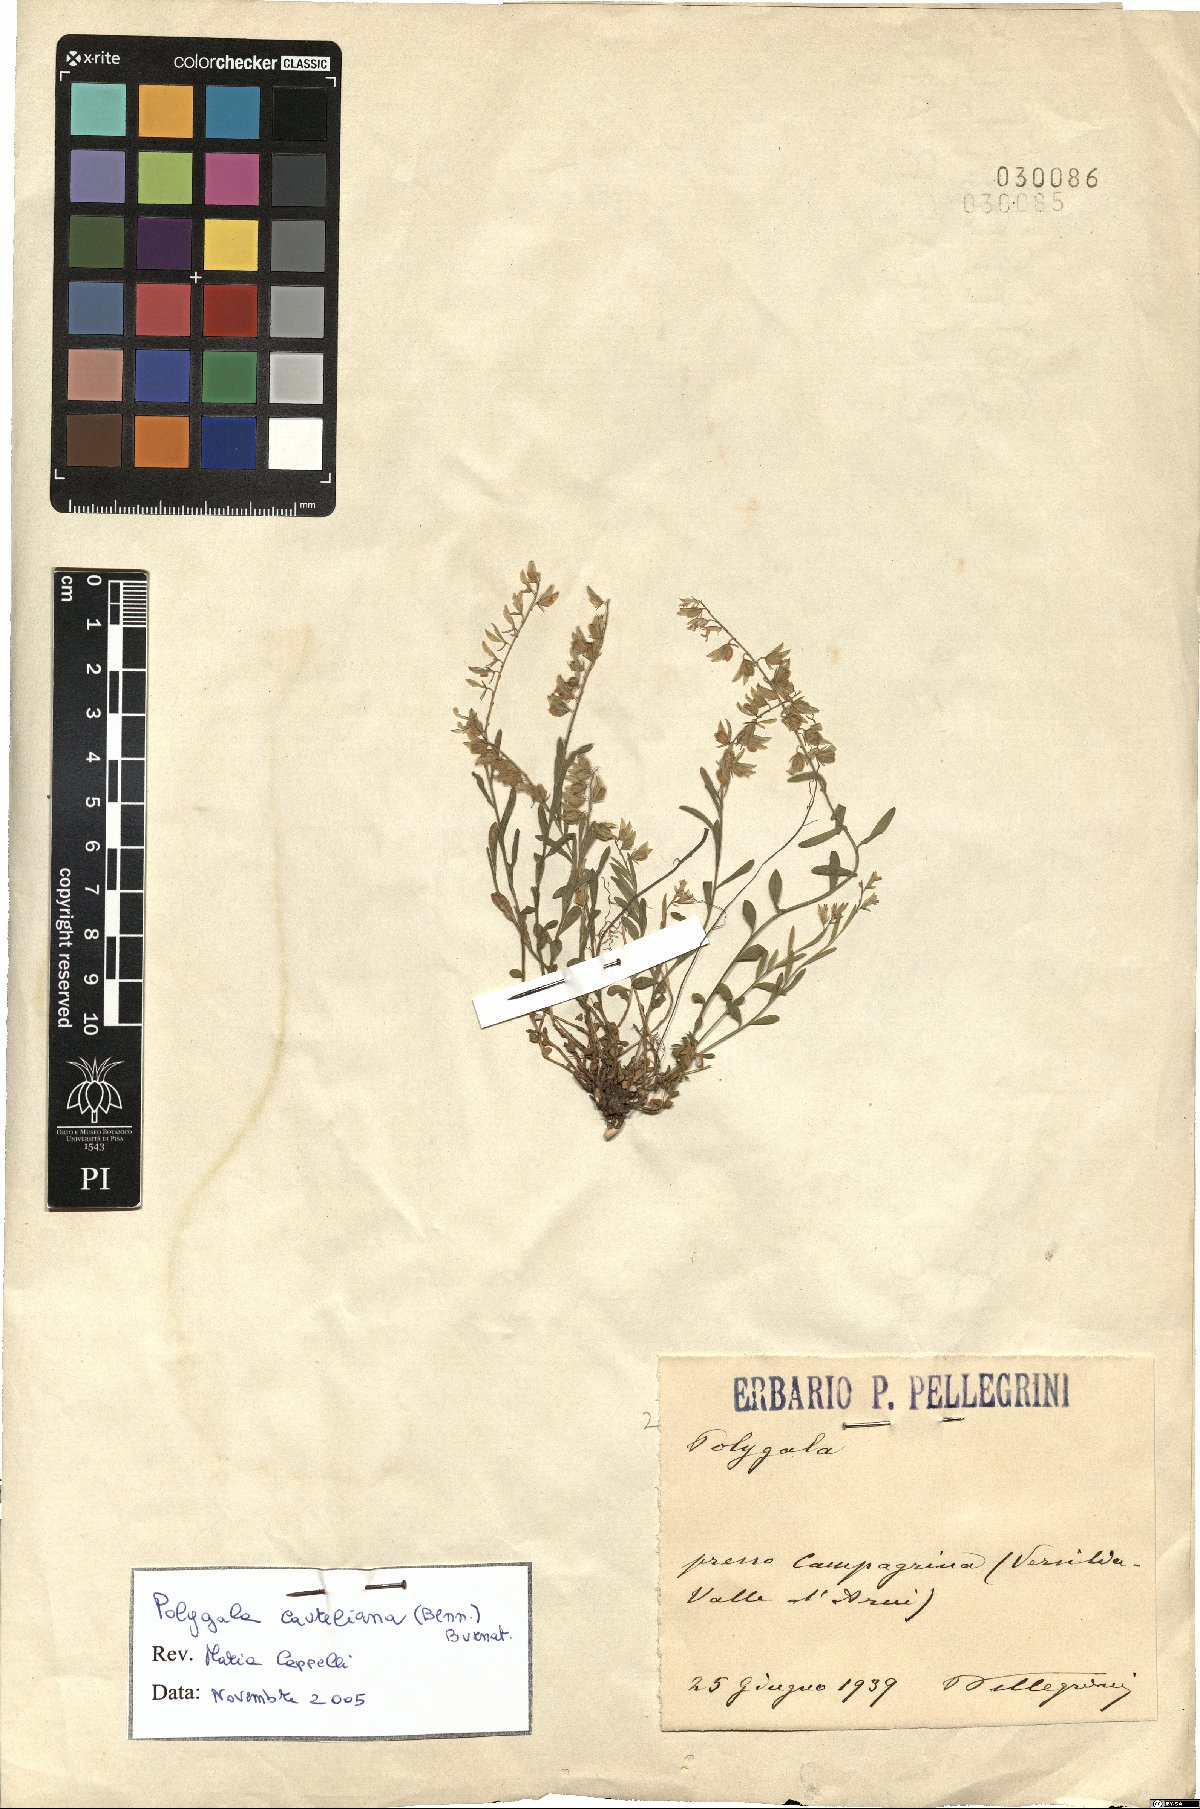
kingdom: Plantae
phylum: Tracheophyta
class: Magnoliopsida
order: Fabales
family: Polygalaceae
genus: Polygala
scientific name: Polygala carueliana
